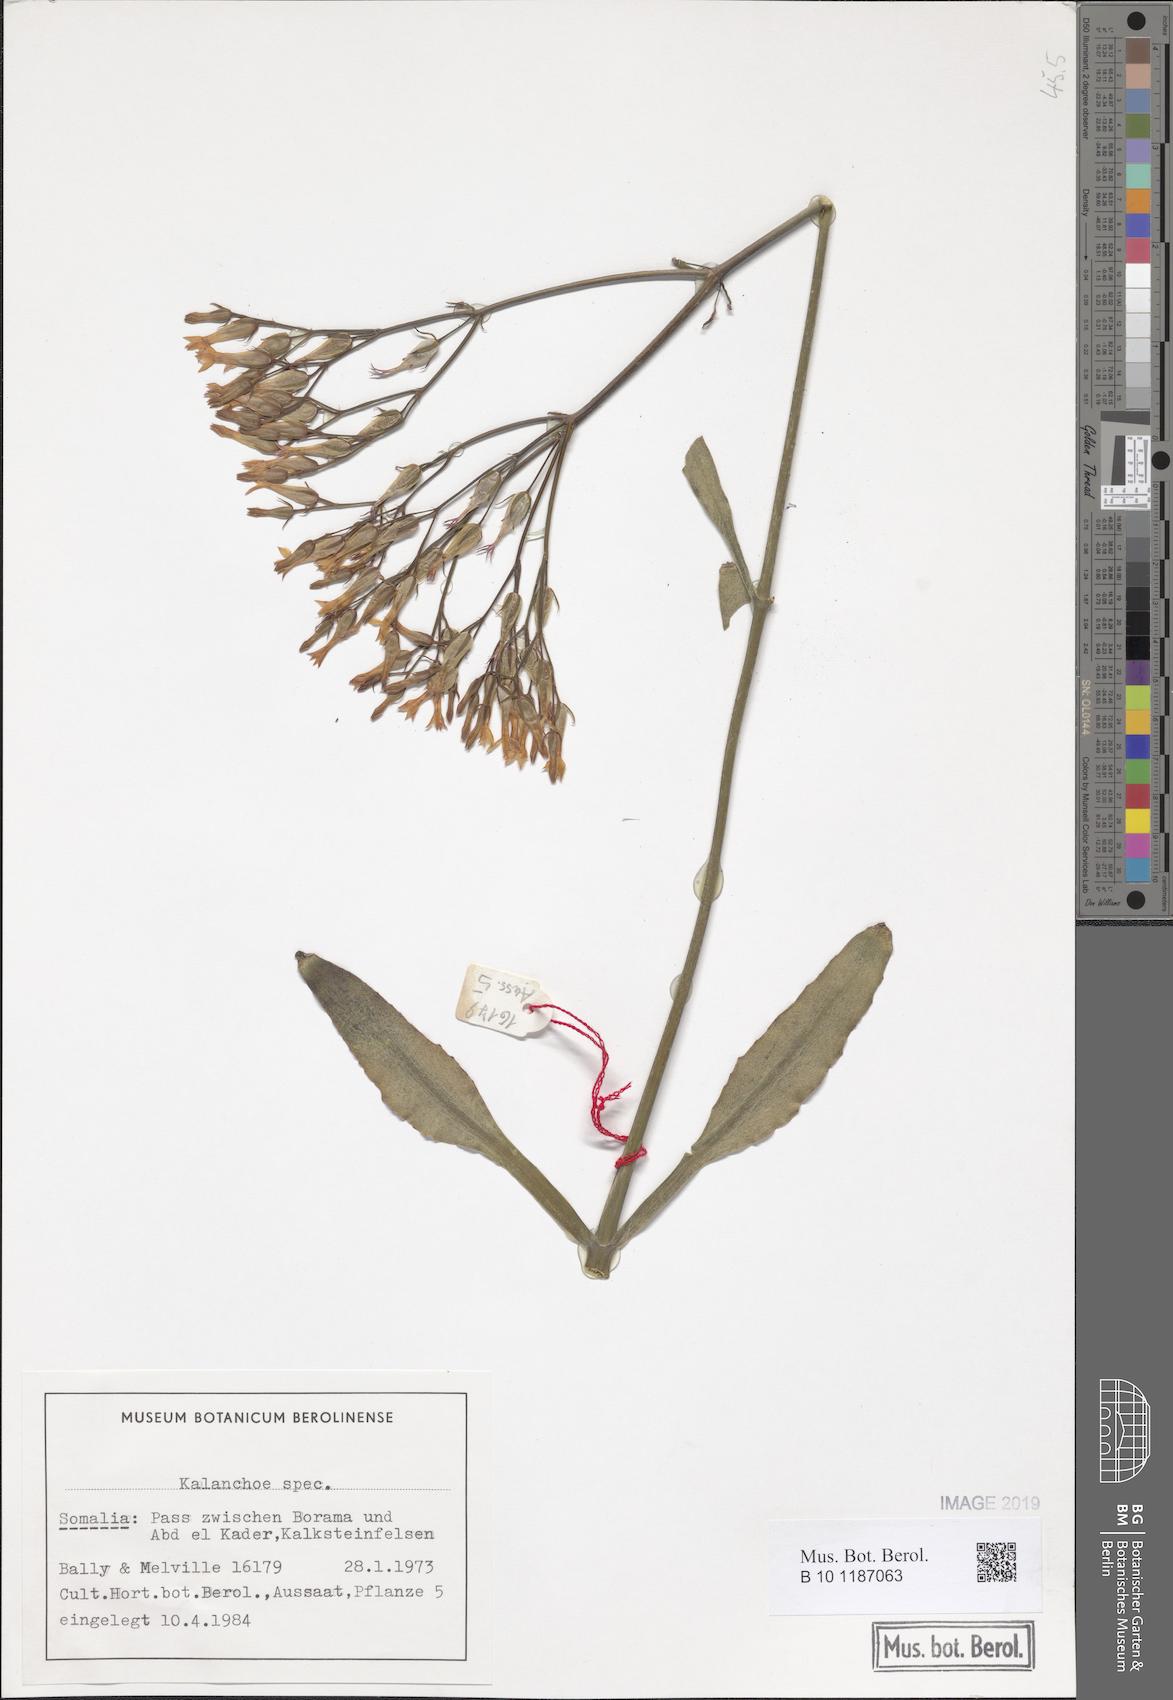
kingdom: Plantae
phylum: Tracheophyta
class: Magnoliopsida
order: Saxifragales
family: Crassulaceae
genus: Kalanchoe
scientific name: Kalanchoe
